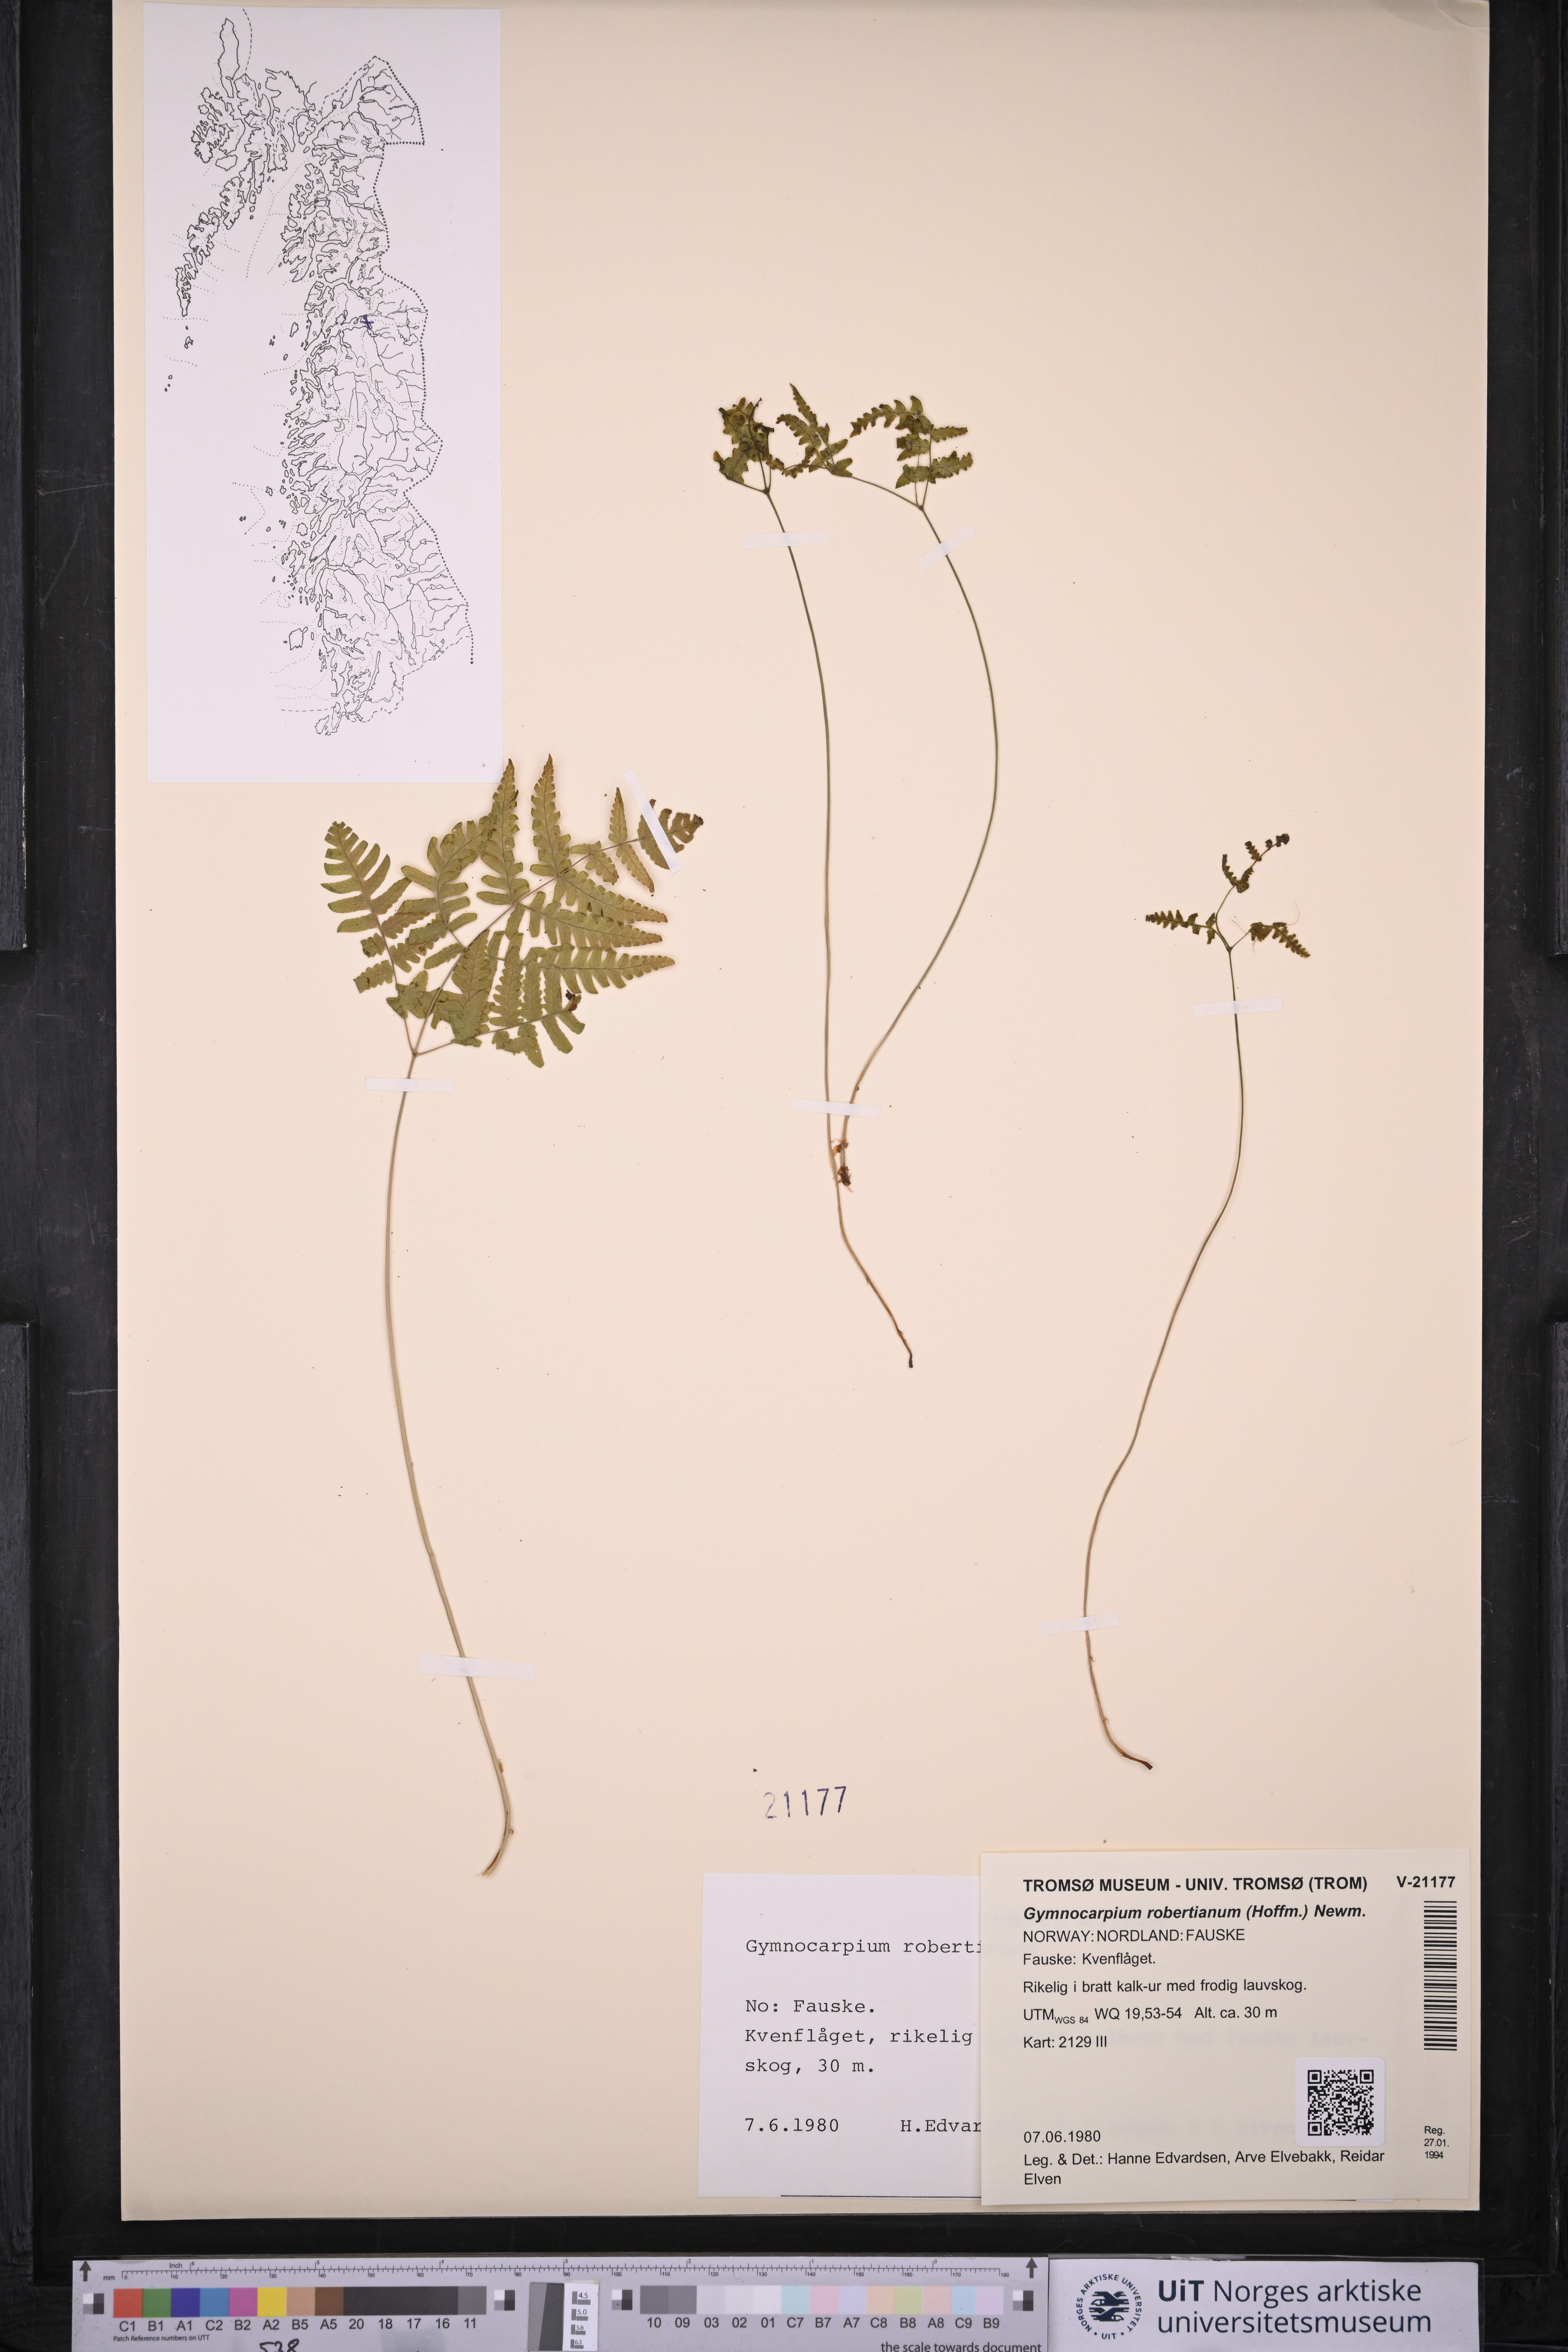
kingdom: Plantae
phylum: Tracheophyta
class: Polypodiopsida
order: Polypodiales
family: Cystopteridaceae
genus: Gymnocarpium
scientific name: Gymnocarpium robertianum
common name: Limestone fern
